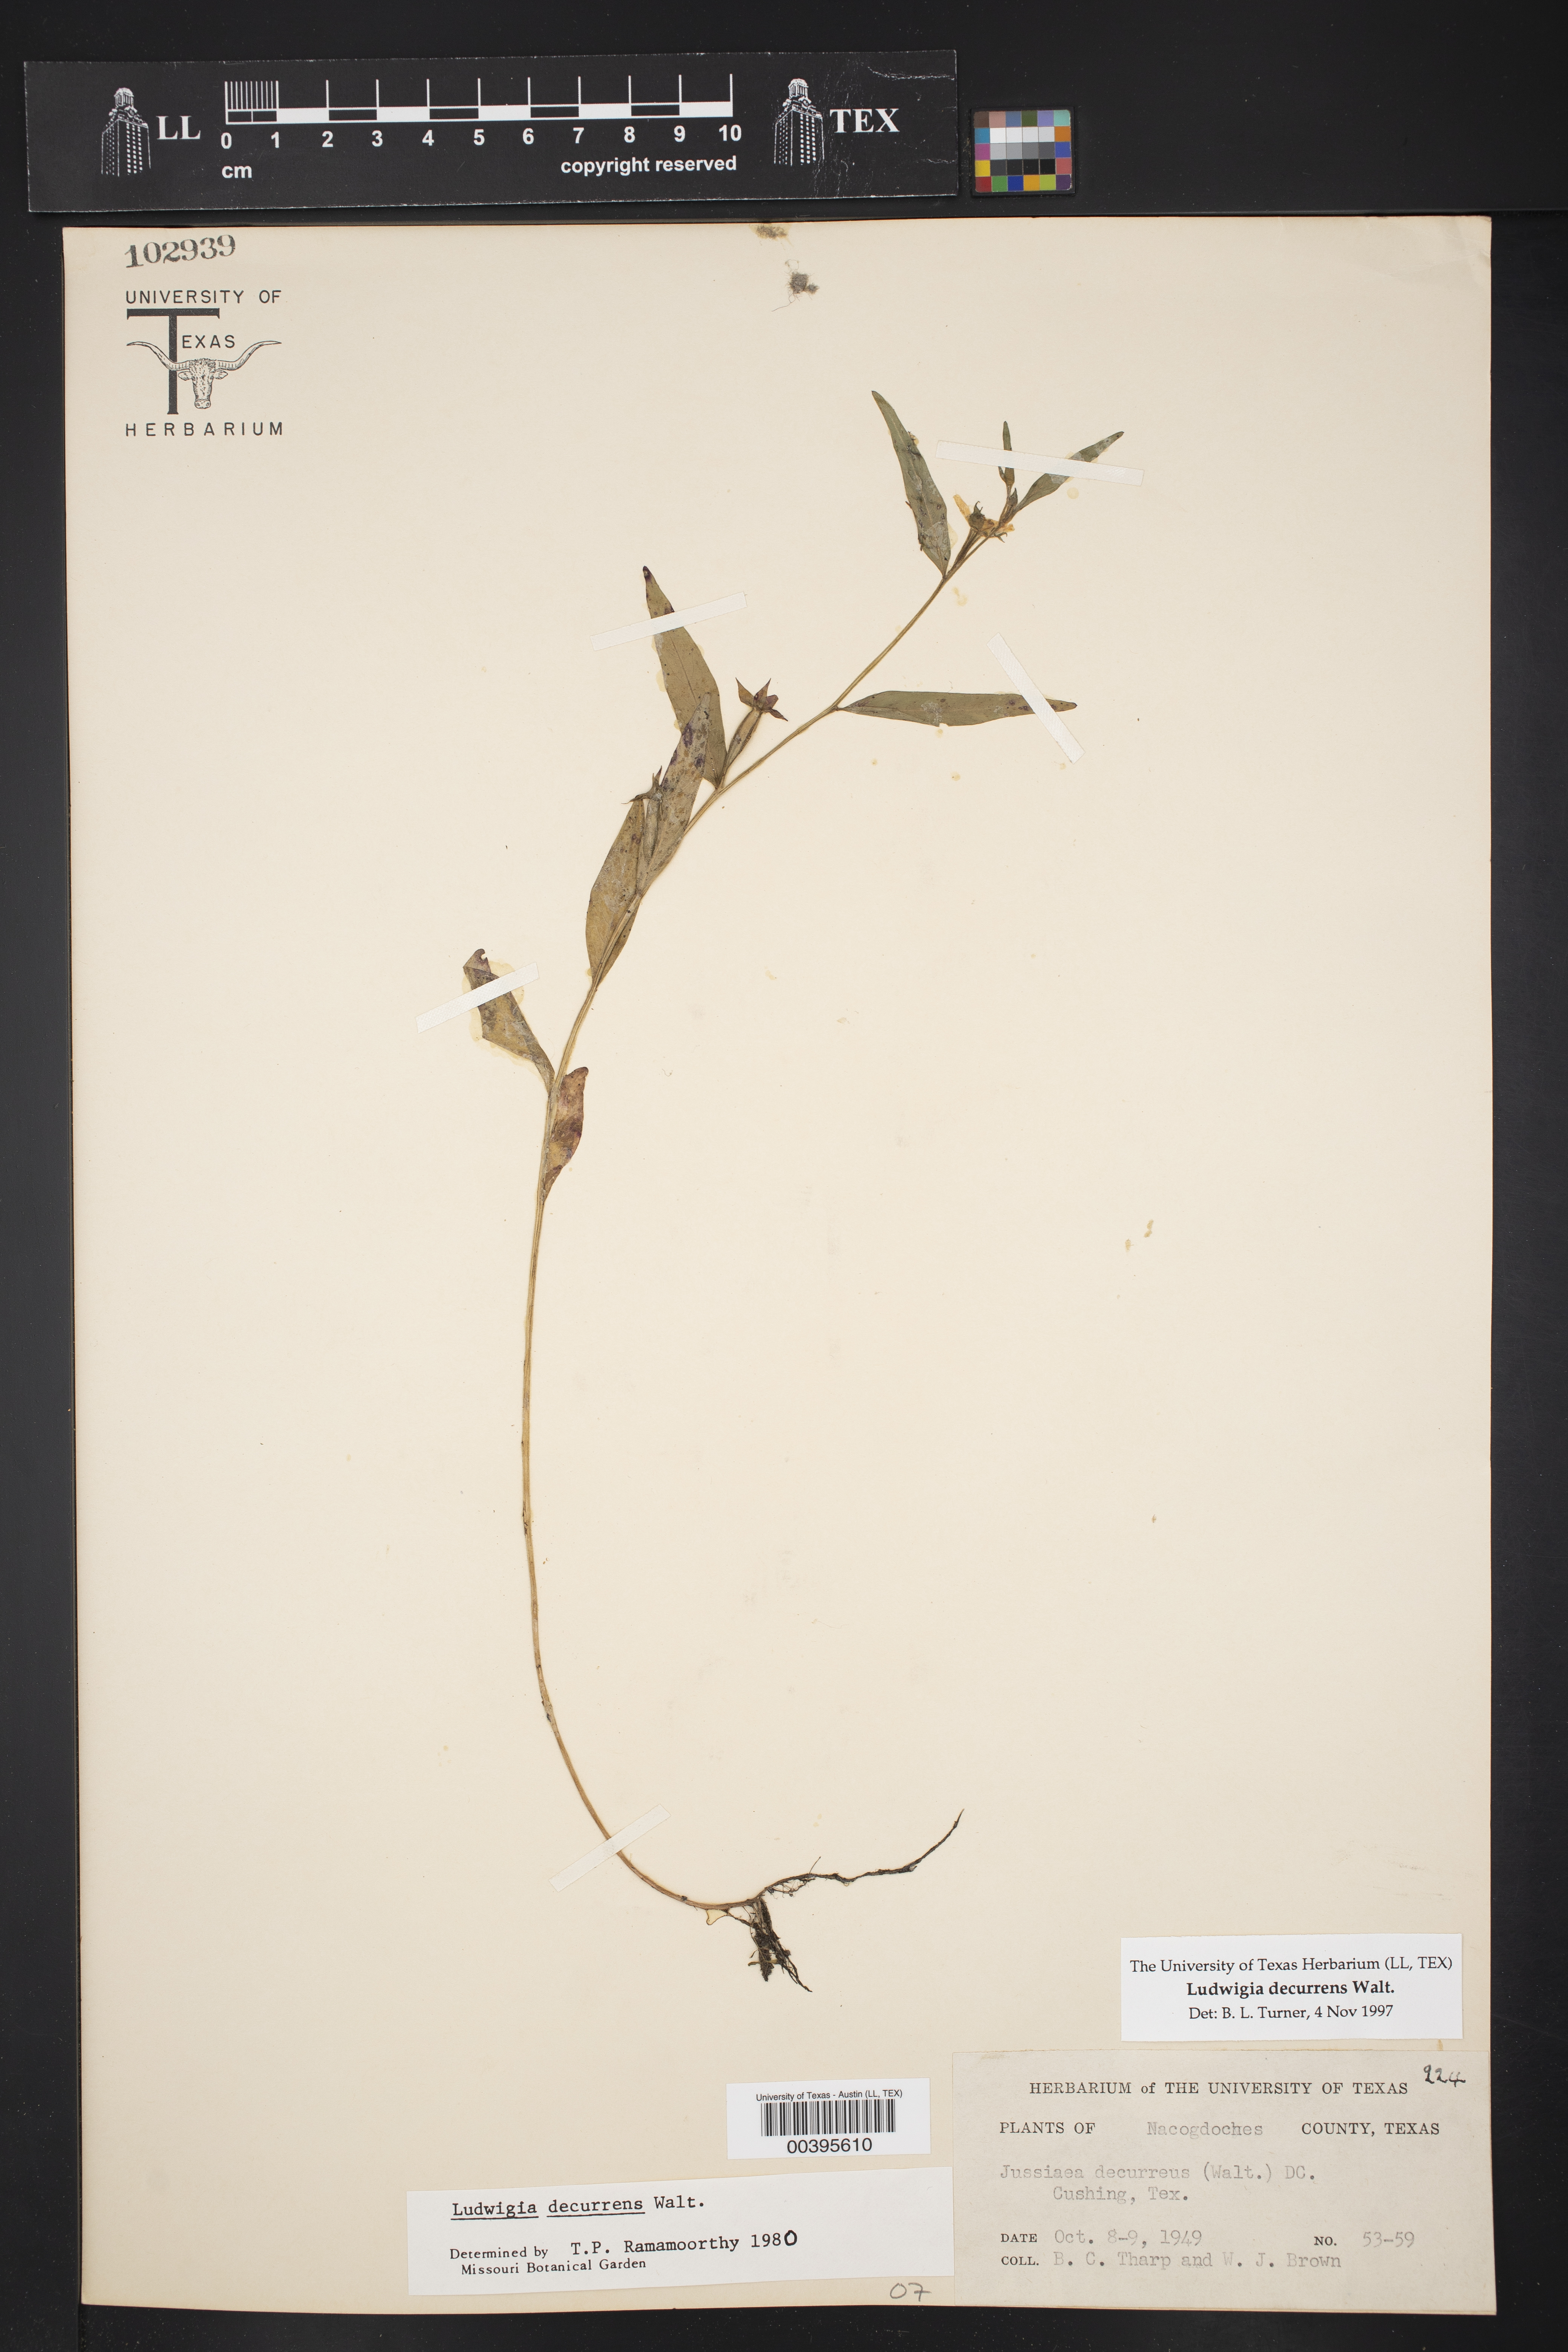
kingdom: Plantae
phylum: Tracheophyta
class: Magnoliopsida
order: Myrtales
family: Onagraceae
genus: Ludwigia
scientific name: Ludwigia decurrens
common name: Winged water-primrose
